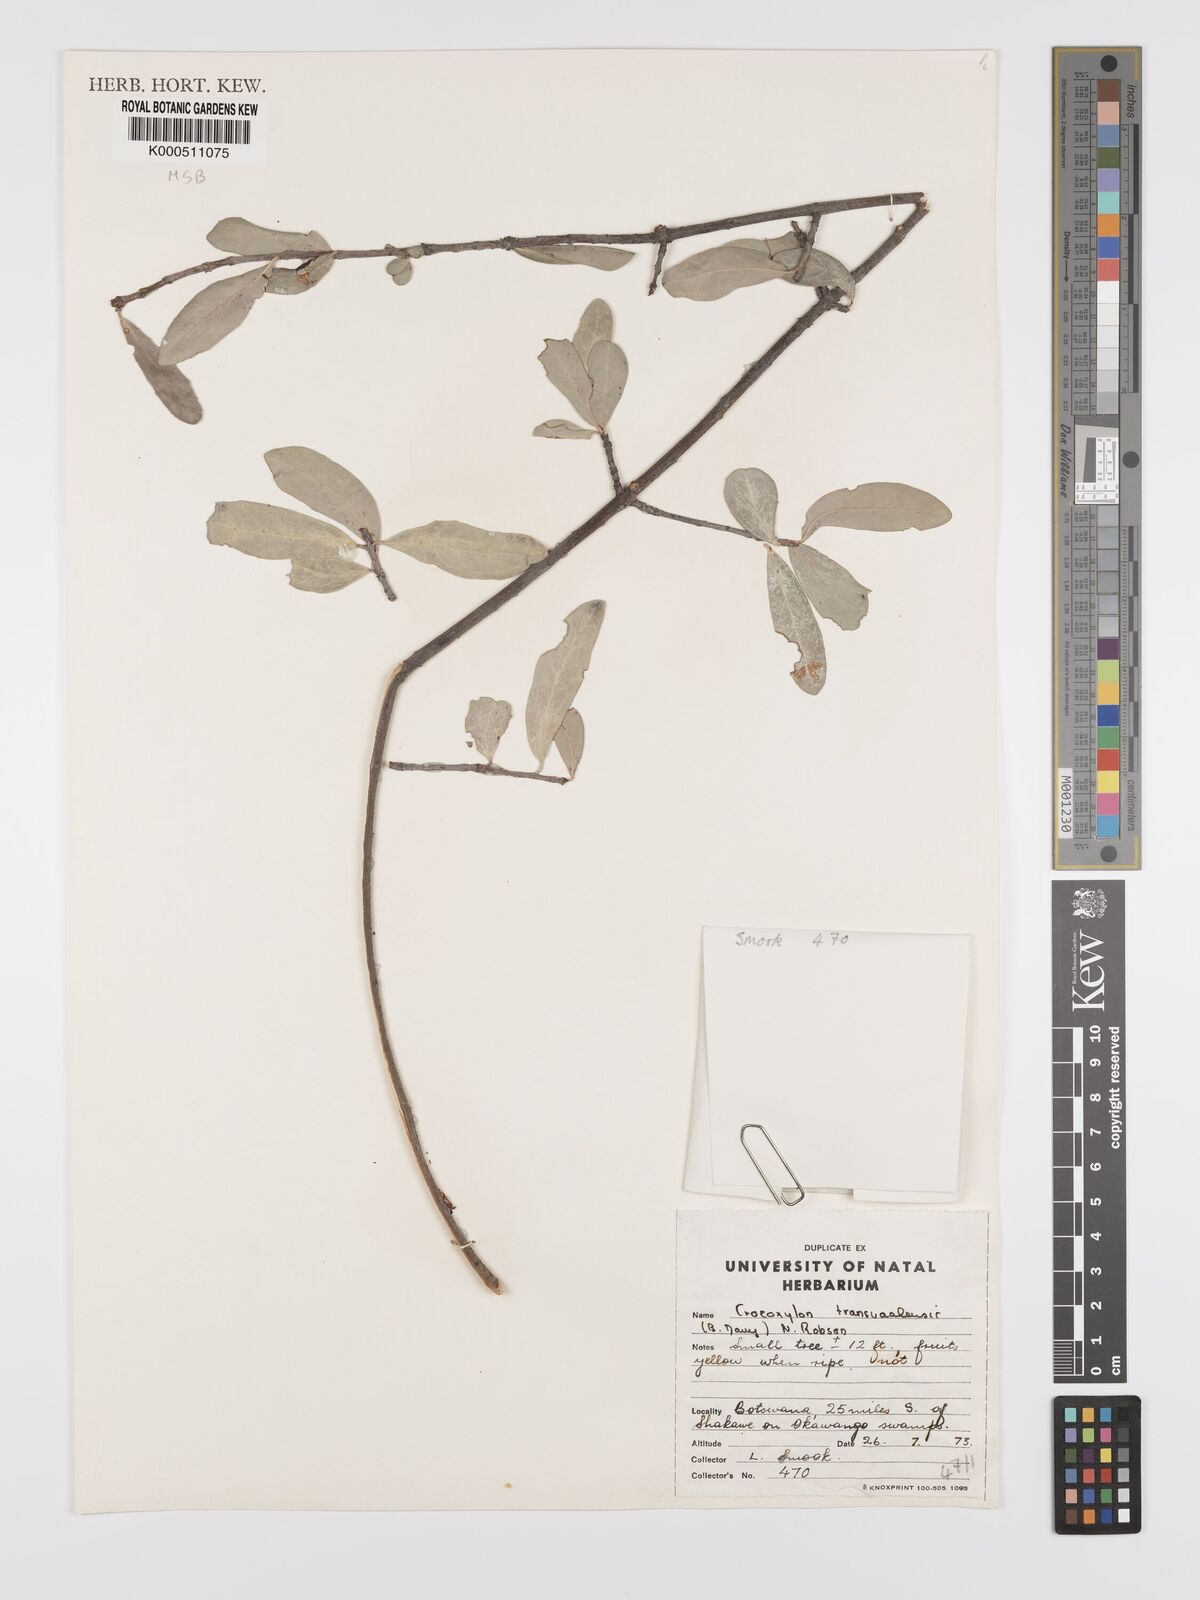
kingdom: Plantae
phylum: Tracheophyta
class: Magnoliopsida
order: Celastrales
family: Celastraceae
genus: Elaeodendron
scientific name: Elaeodendron transvaalense
